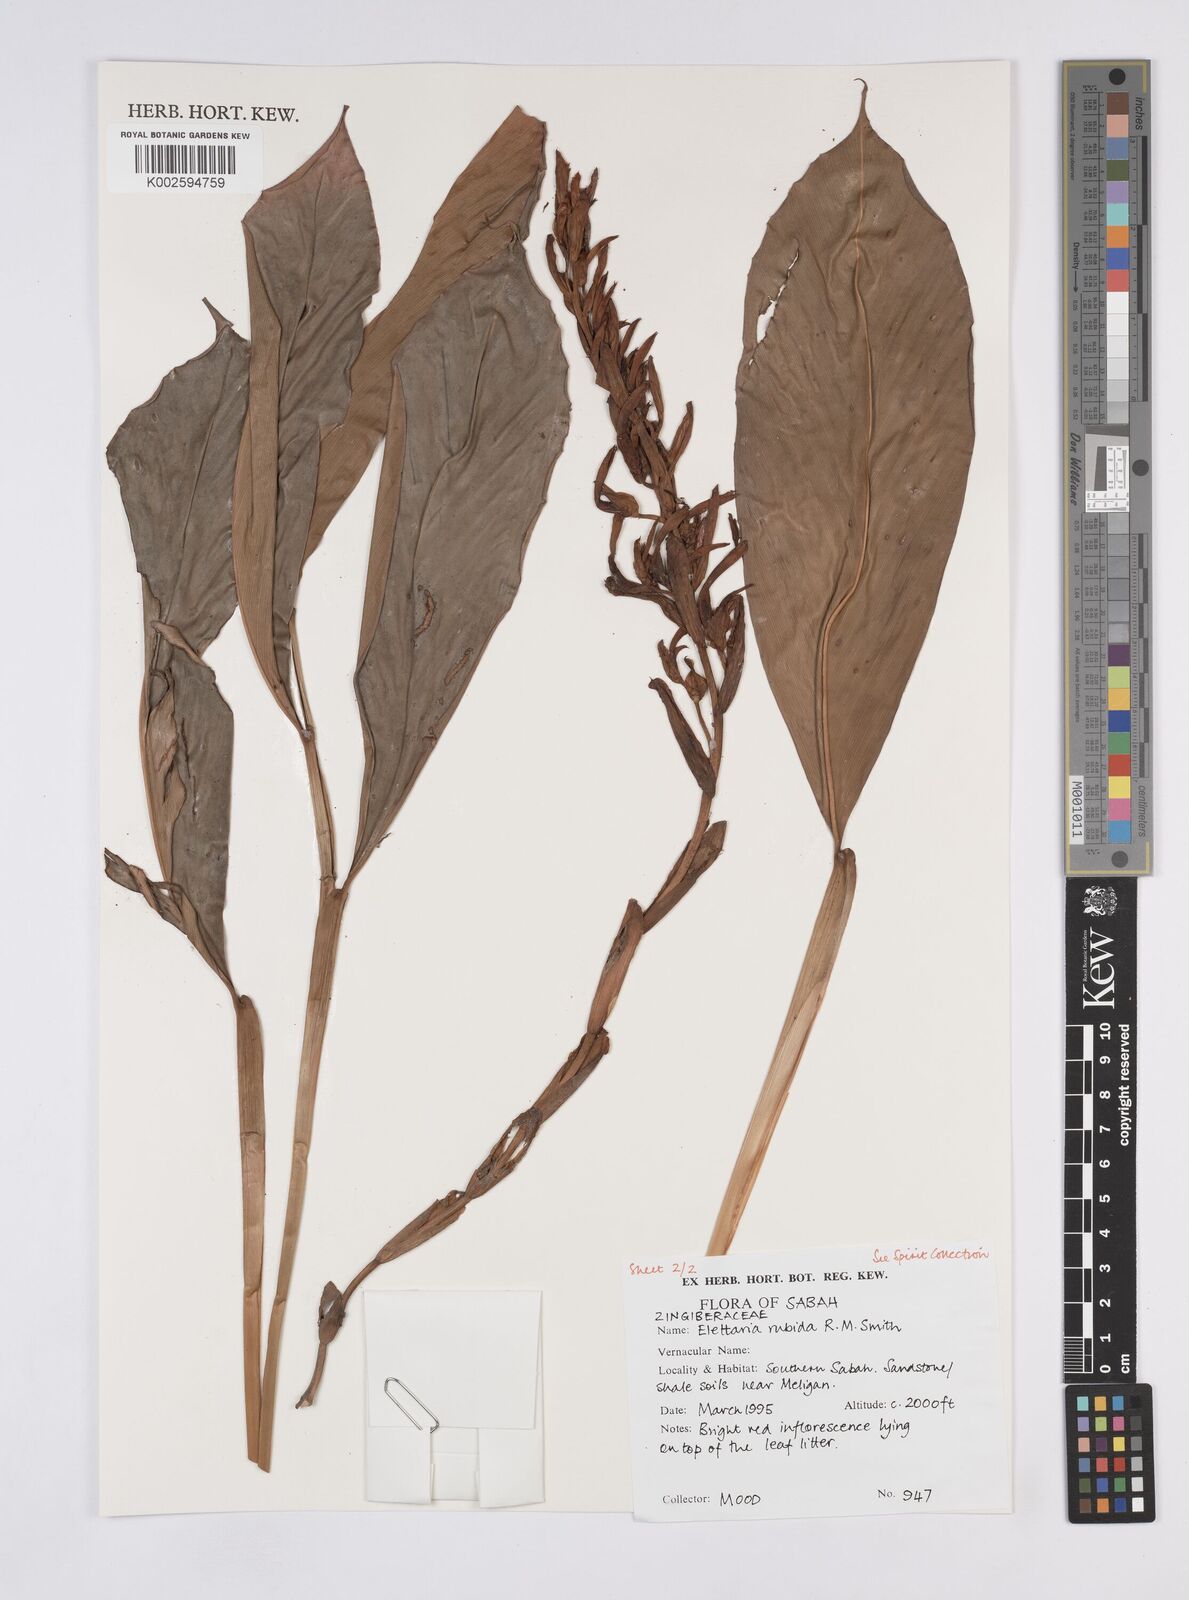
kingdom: Plantae
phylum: Tracheophyta
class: Liliopsida
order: Zingiberales
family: Zingiberaceae
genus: Sulettaria
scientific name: Sulettaria rubida
